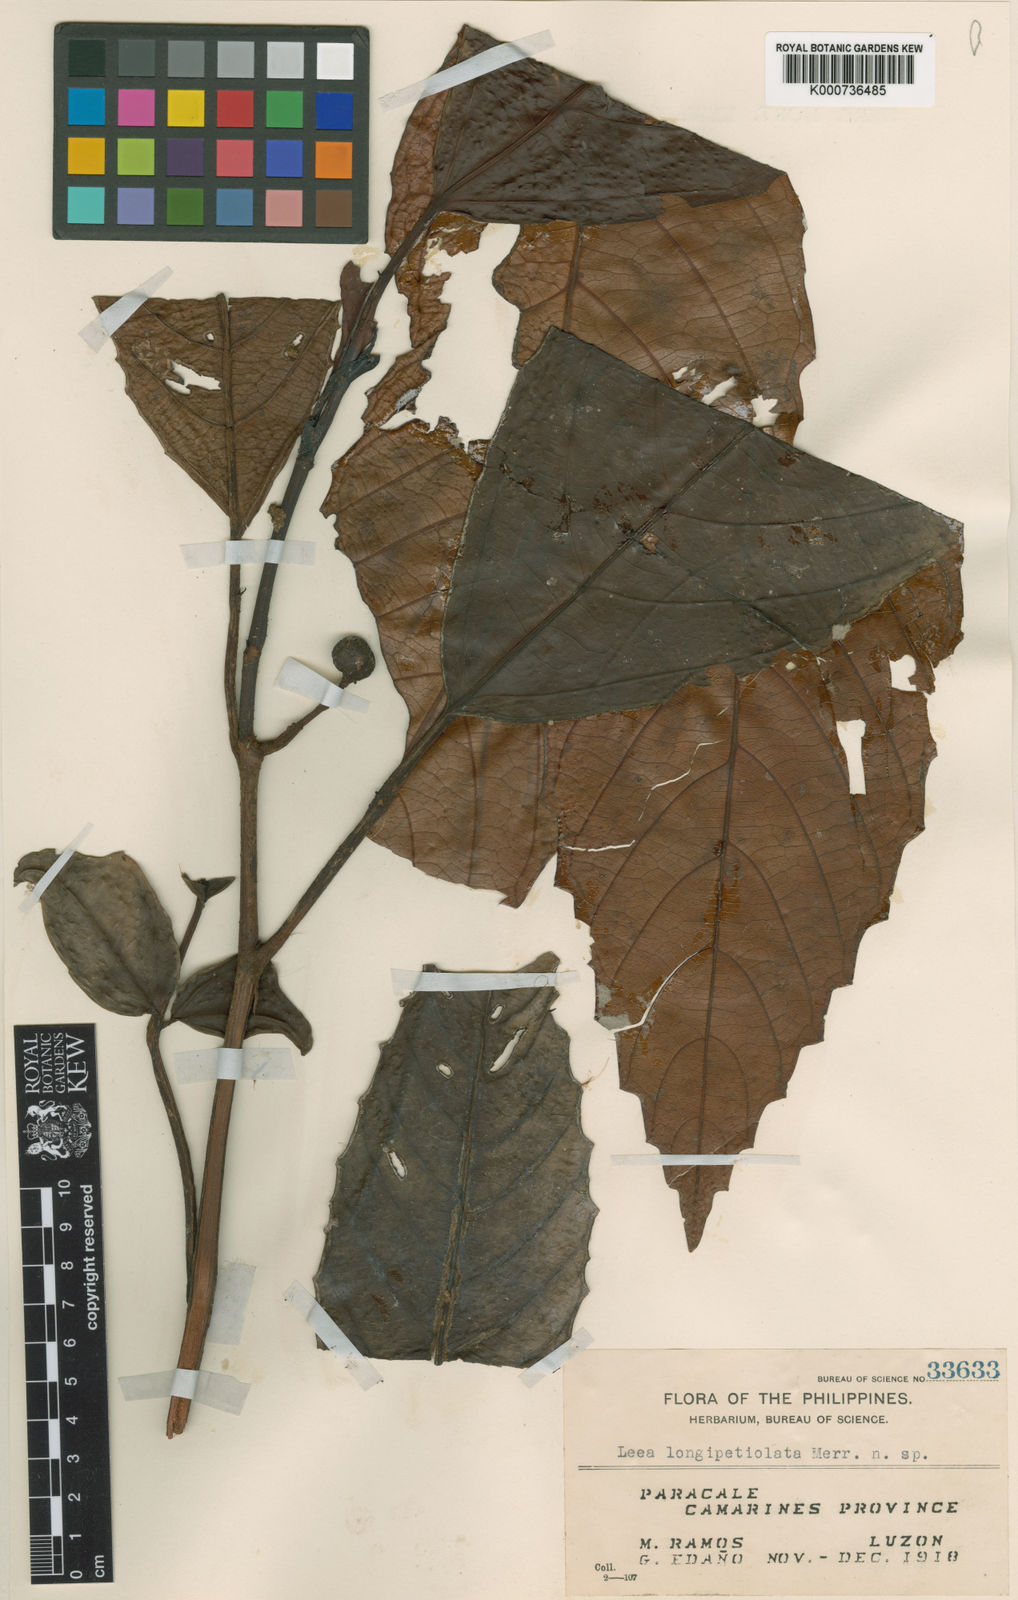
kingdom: Plantae
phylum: Tracheophyta
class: Magnoliopsida
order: Vitales
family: Vitaceae
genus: Leea
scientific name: Leea
